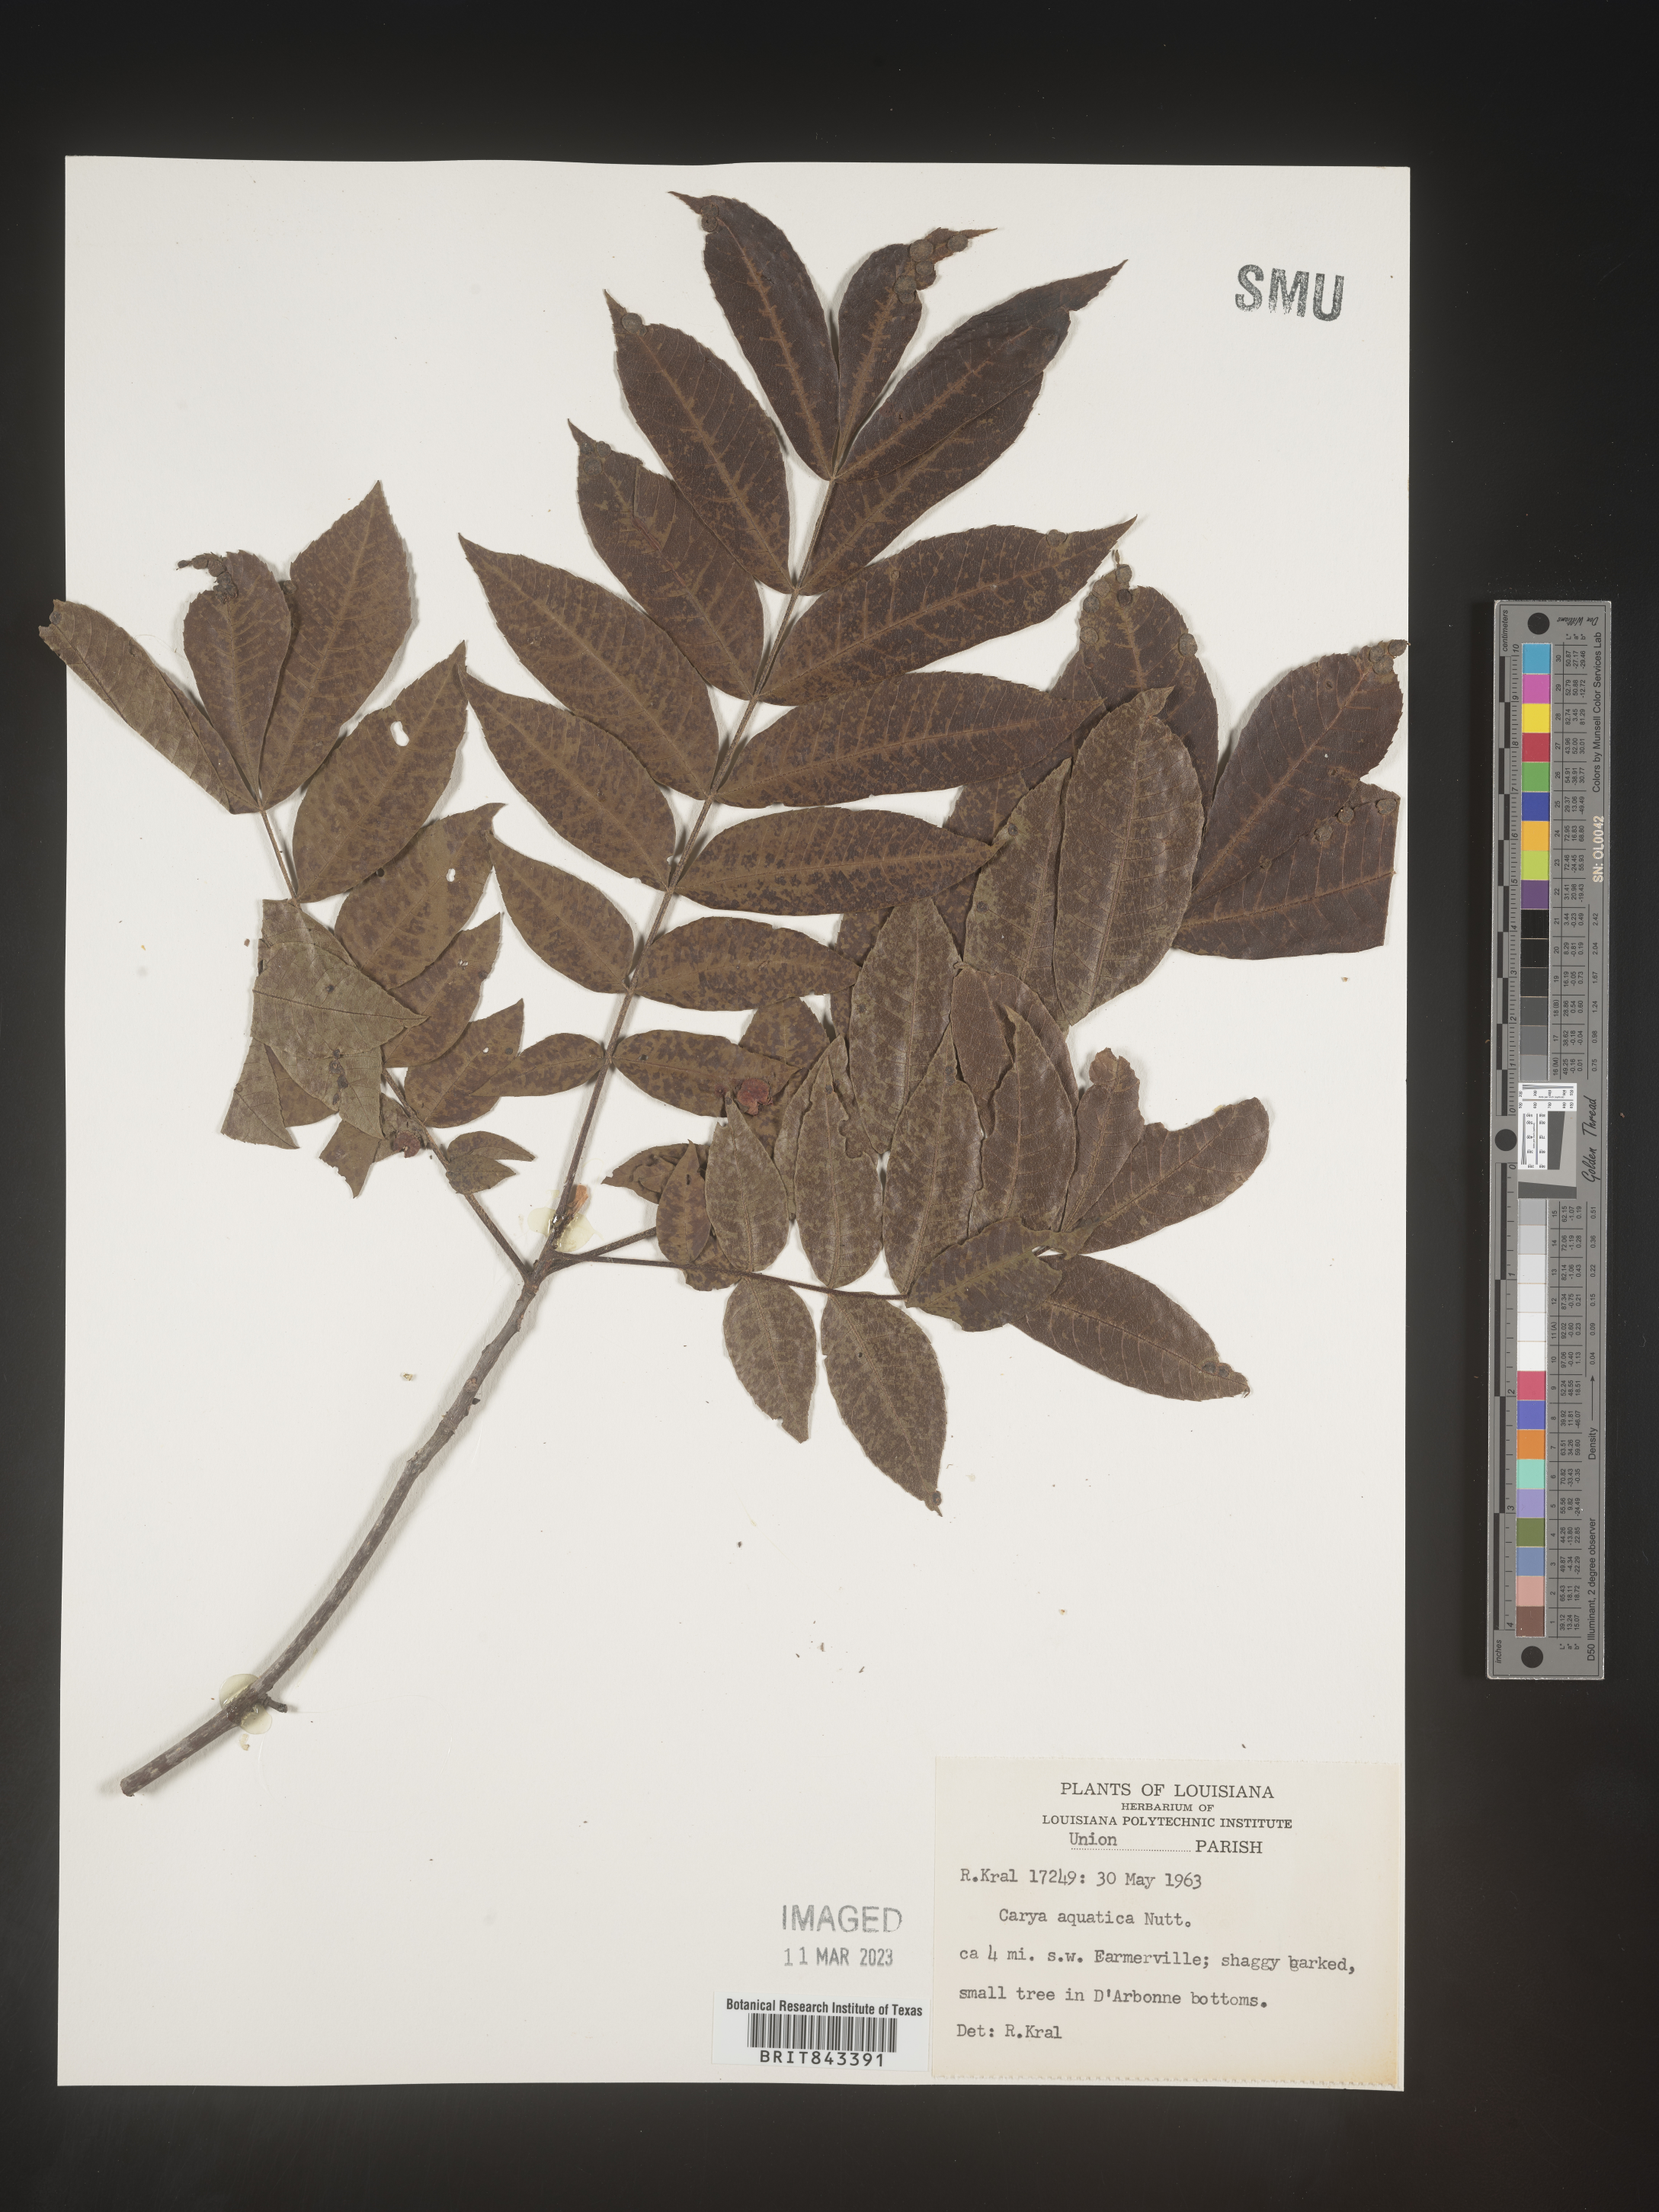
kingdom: Plantae
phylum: Tracheophyta
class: Magnoliopsida
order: Fagales
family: Juglandaceae
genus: Carya
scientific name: Carya aquatica
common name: Water hickory
